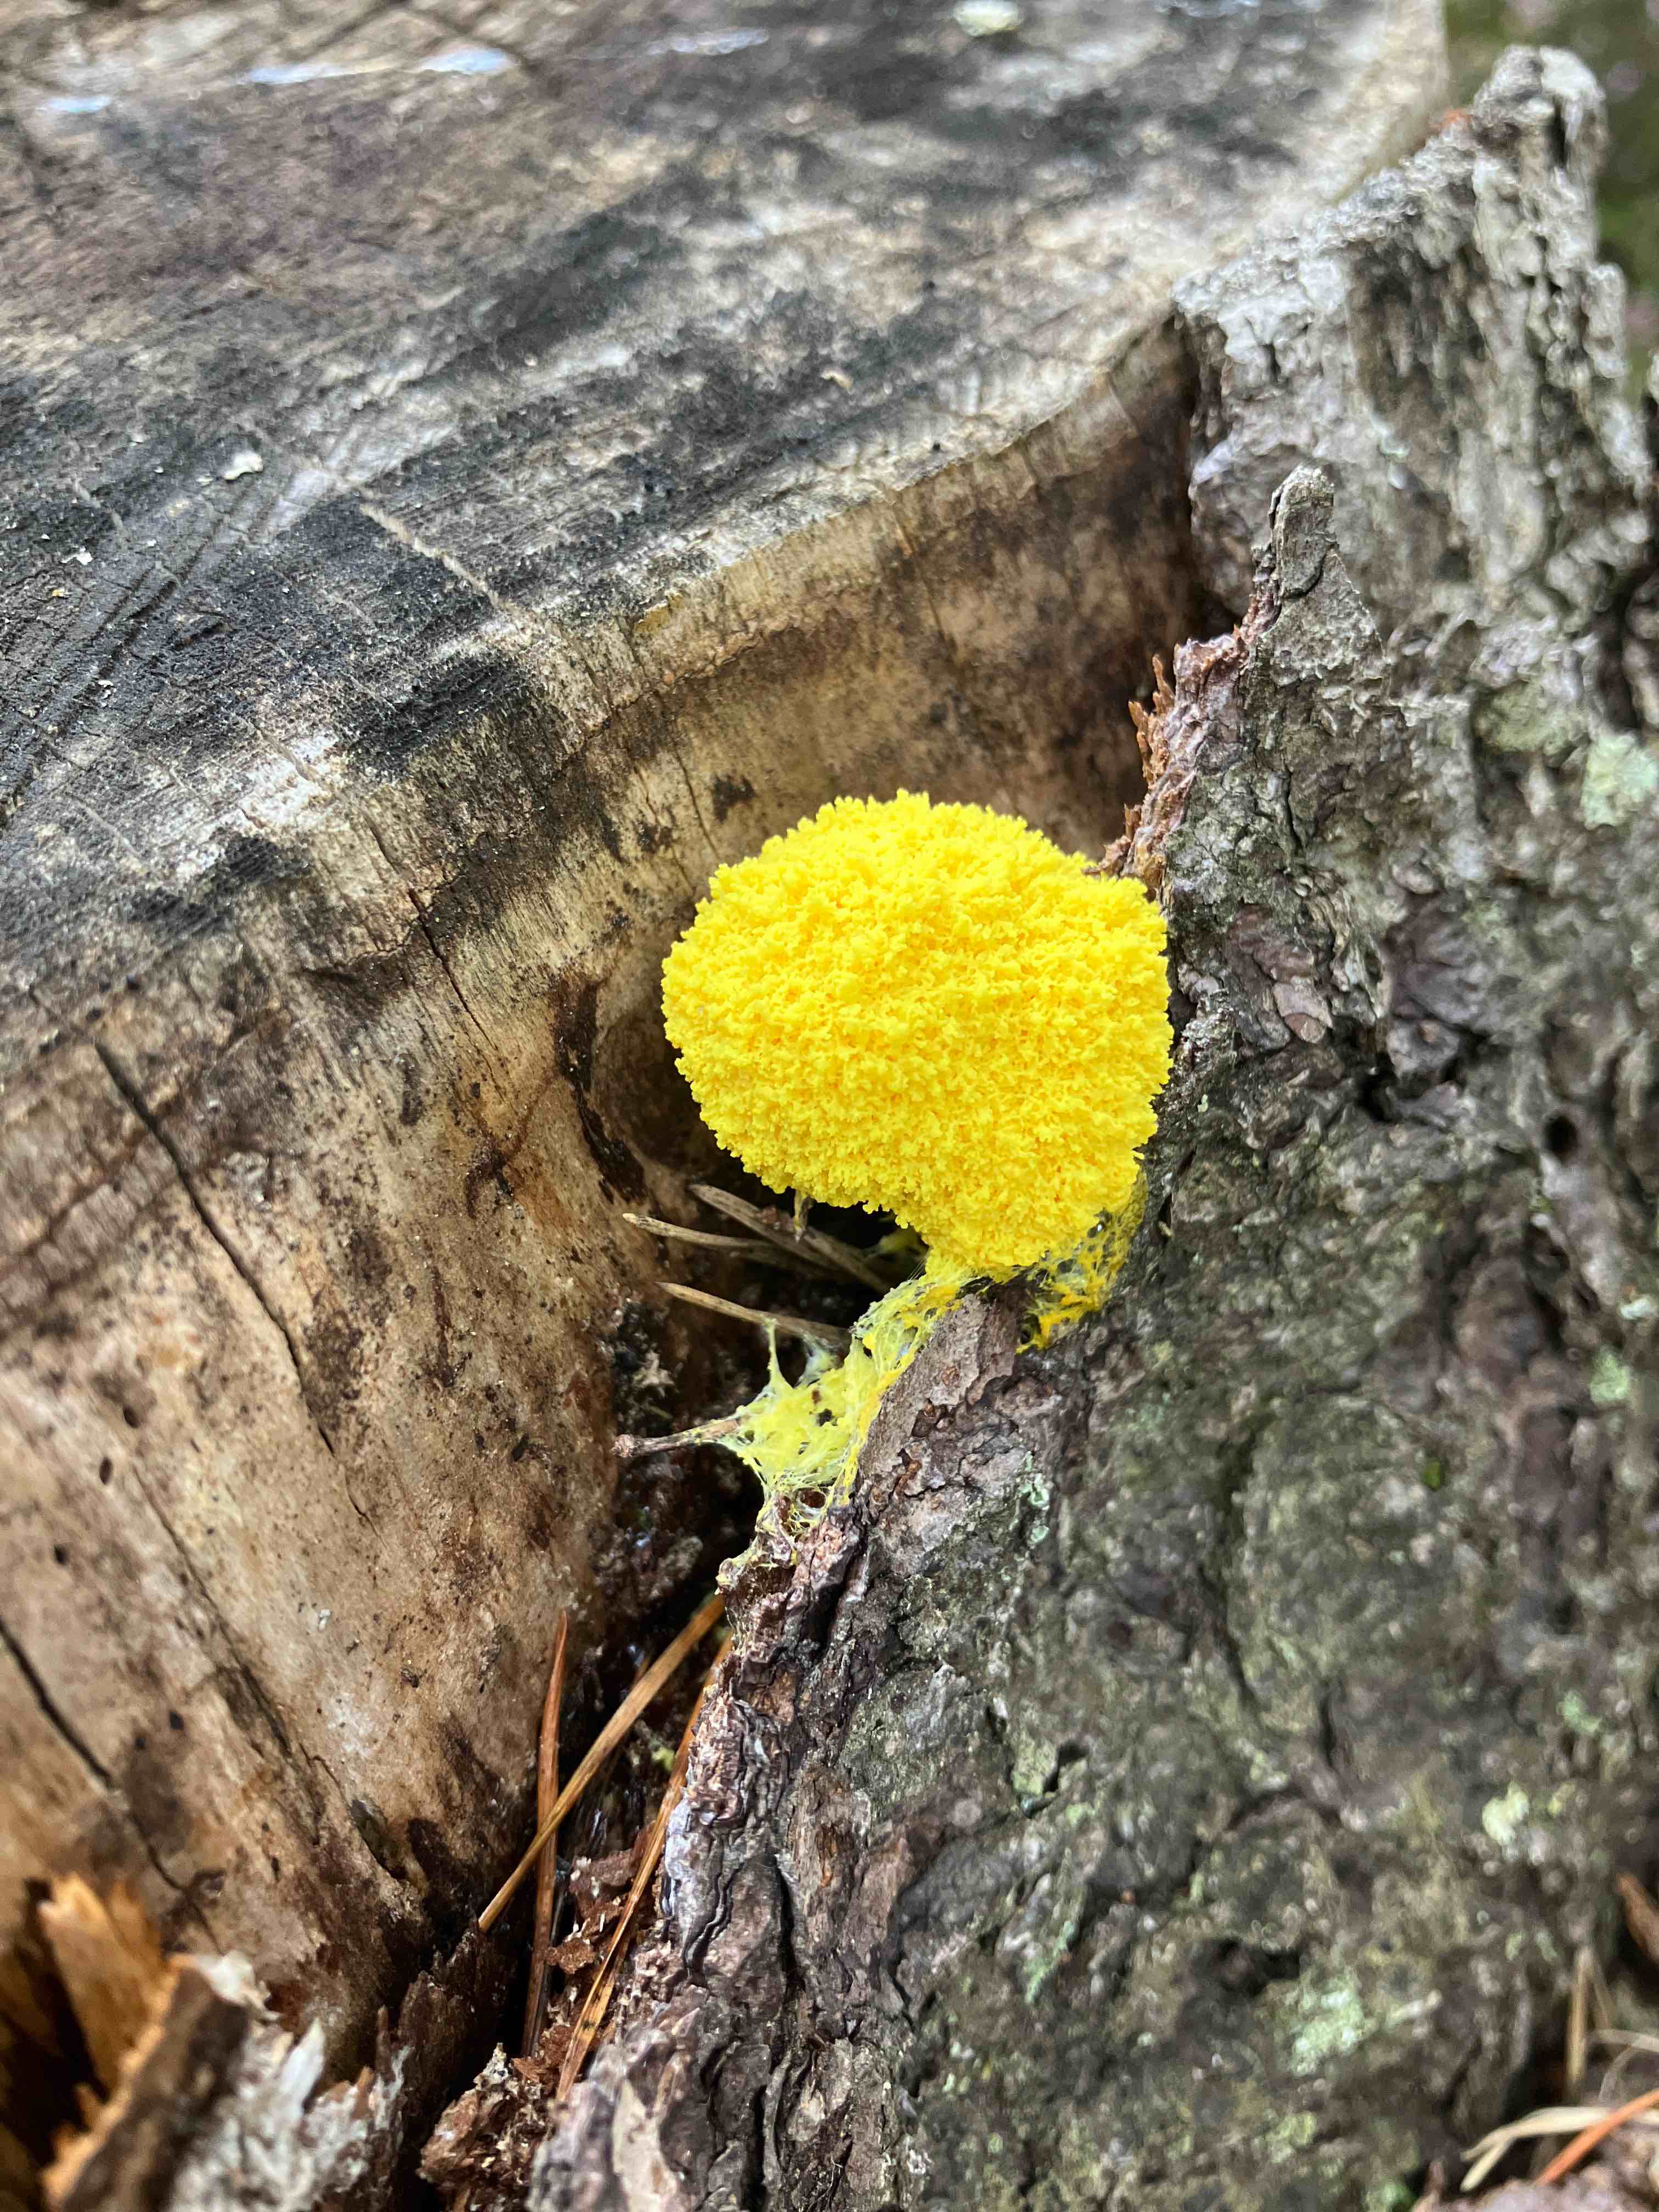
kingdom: Protozoa
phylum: Mycetozoa
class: Myxomycetes
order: Physarales
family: Physaraceae
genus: Fuligo
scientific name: Fuligo septica
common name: gul troldsmør
